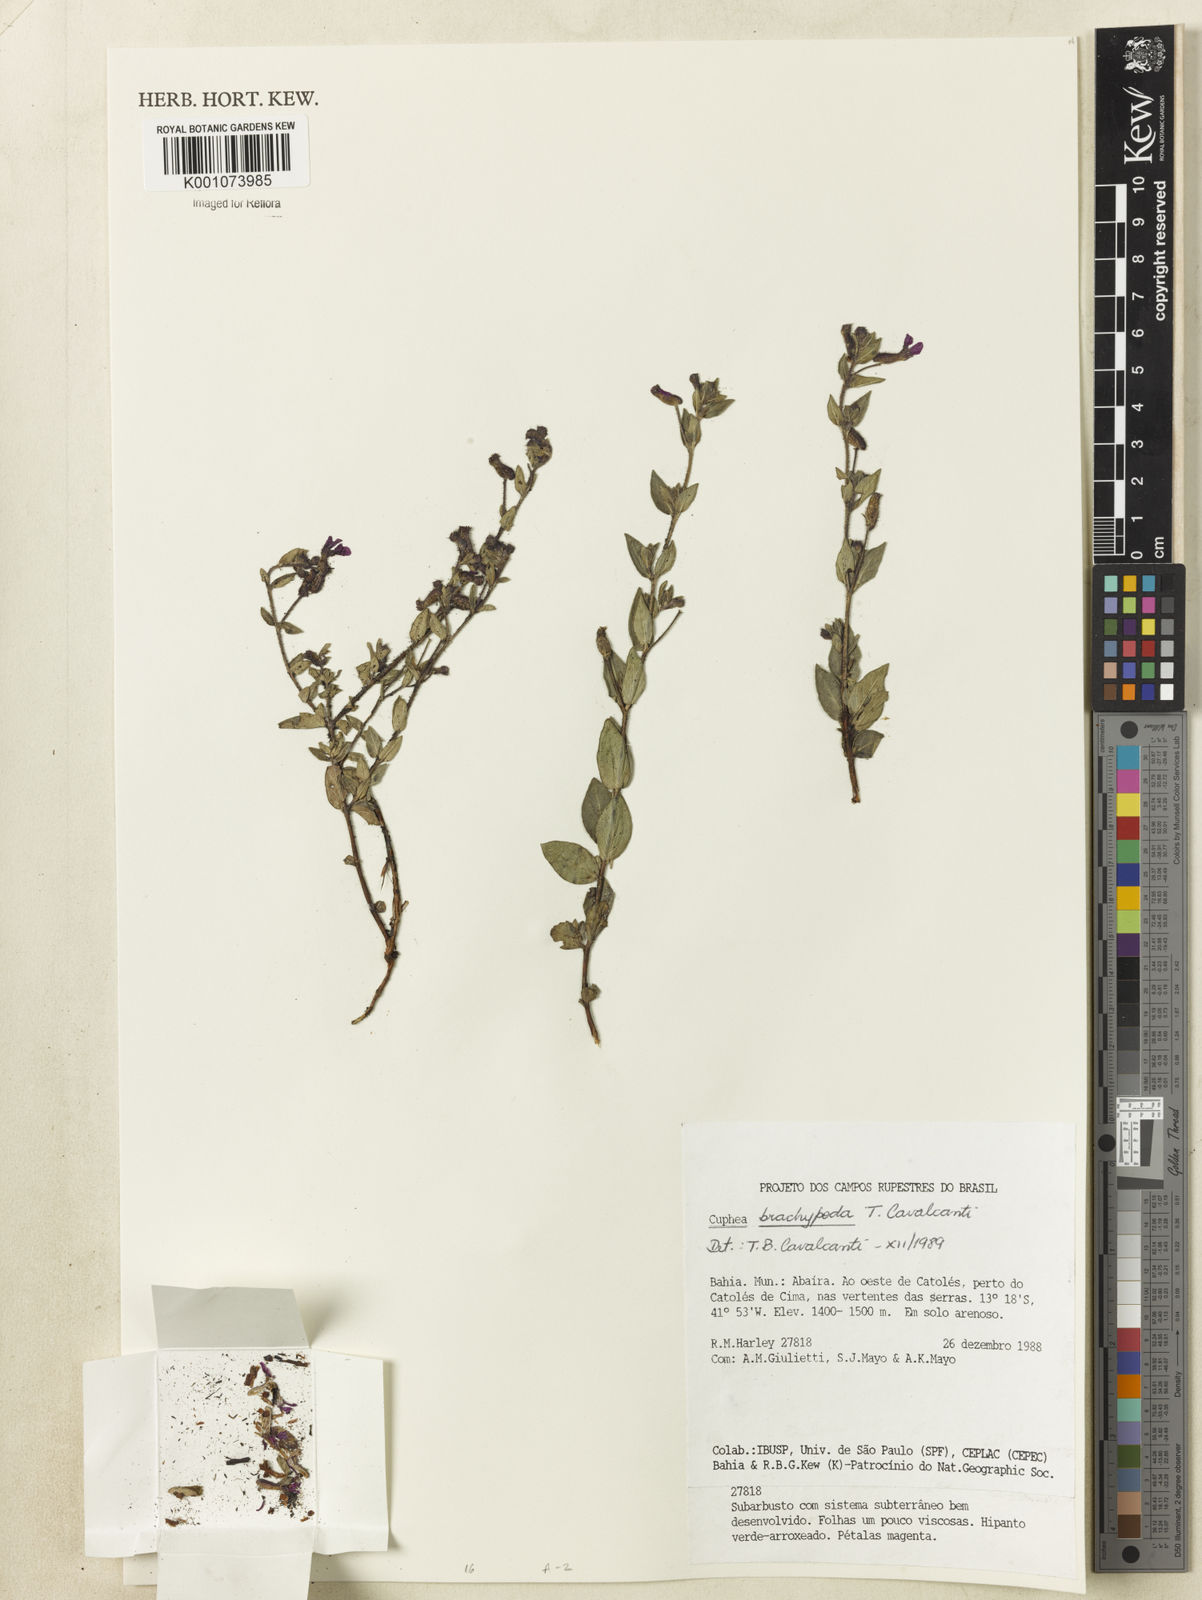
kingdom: Plantae
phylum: Tracheophyta
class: Magnoliopsida
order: Myrtales
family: Lythraceae
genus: Cuphea
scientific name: Cuphea brachypoda
